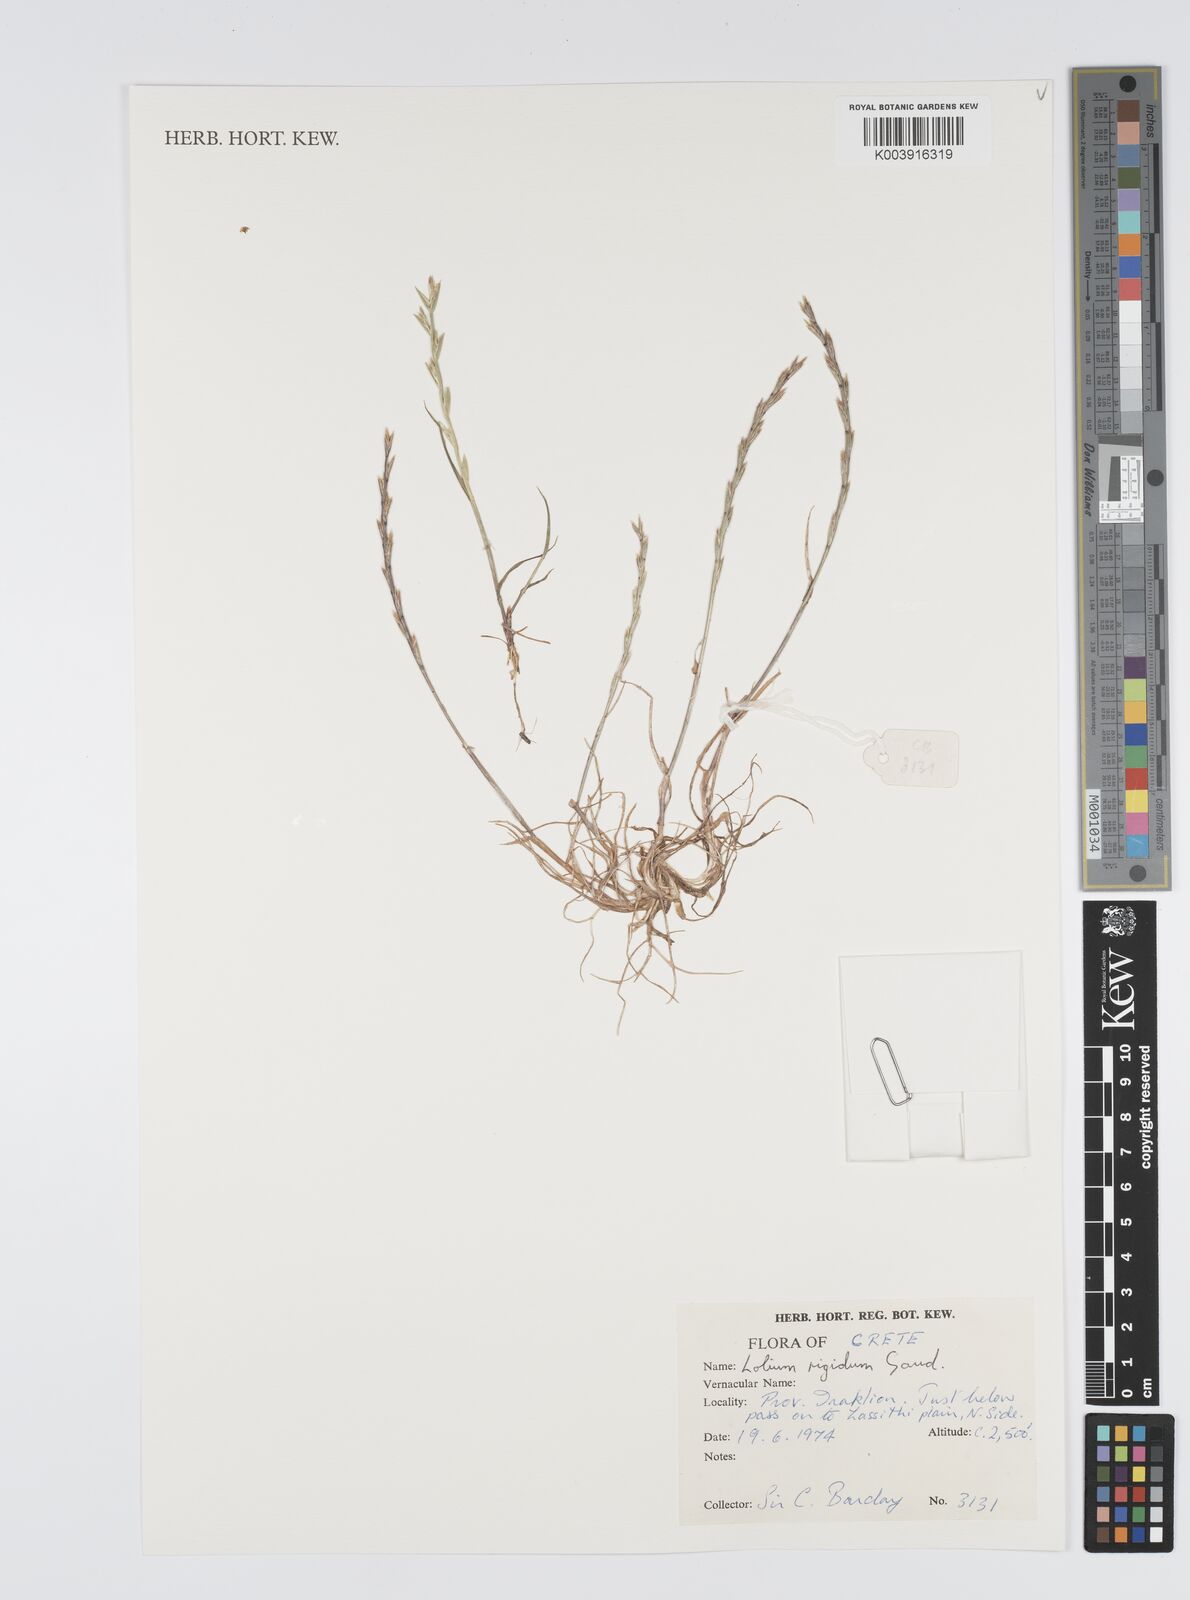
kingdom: Plantae
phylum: Tracheophyta
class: Liliopsida
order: Poales
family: Poaceae
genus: Lolium
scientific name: Lolium rigidum
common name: Wimmera ryegrass
